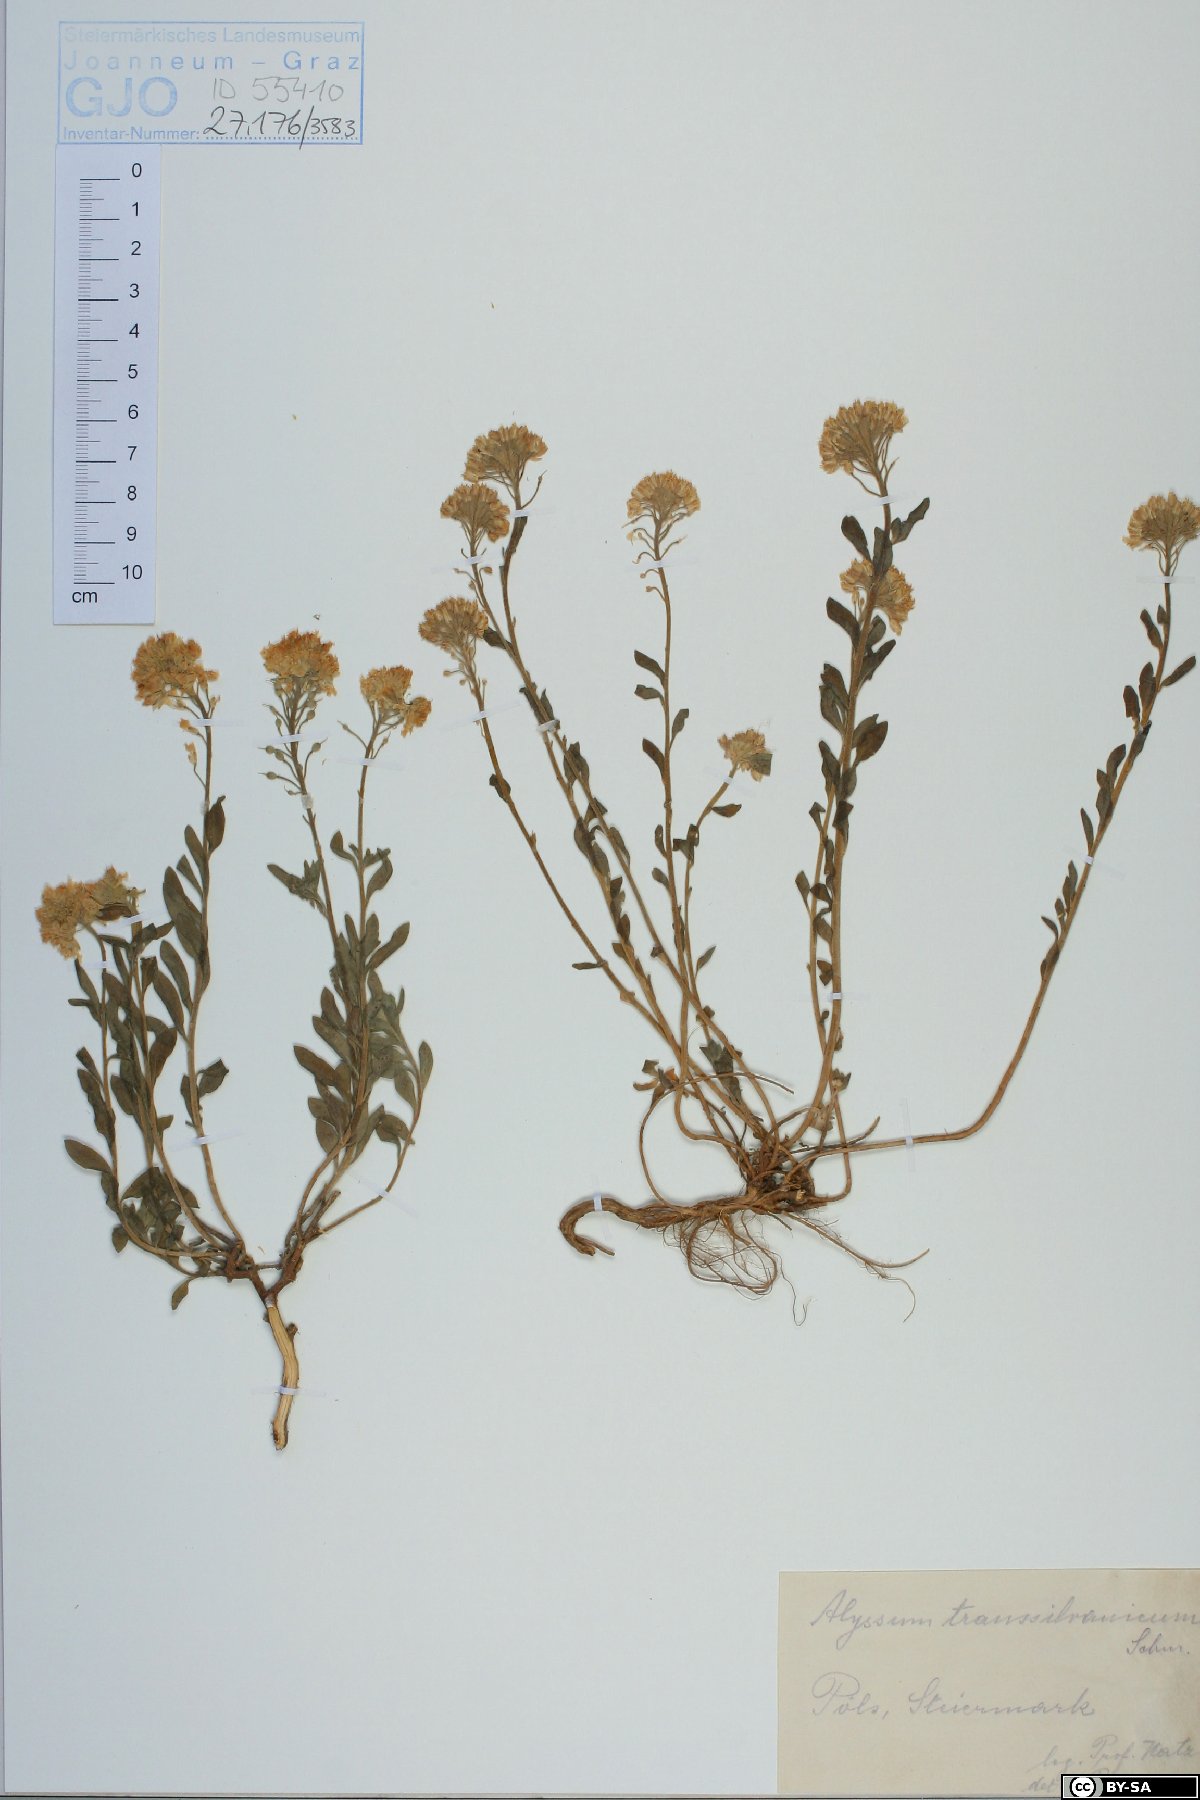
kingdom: Plantae
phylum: Tracheophyta
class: Magnoliopsida
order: Brassicales
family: Brassicaceae
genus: Alyssum
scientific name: Alyssum repens
